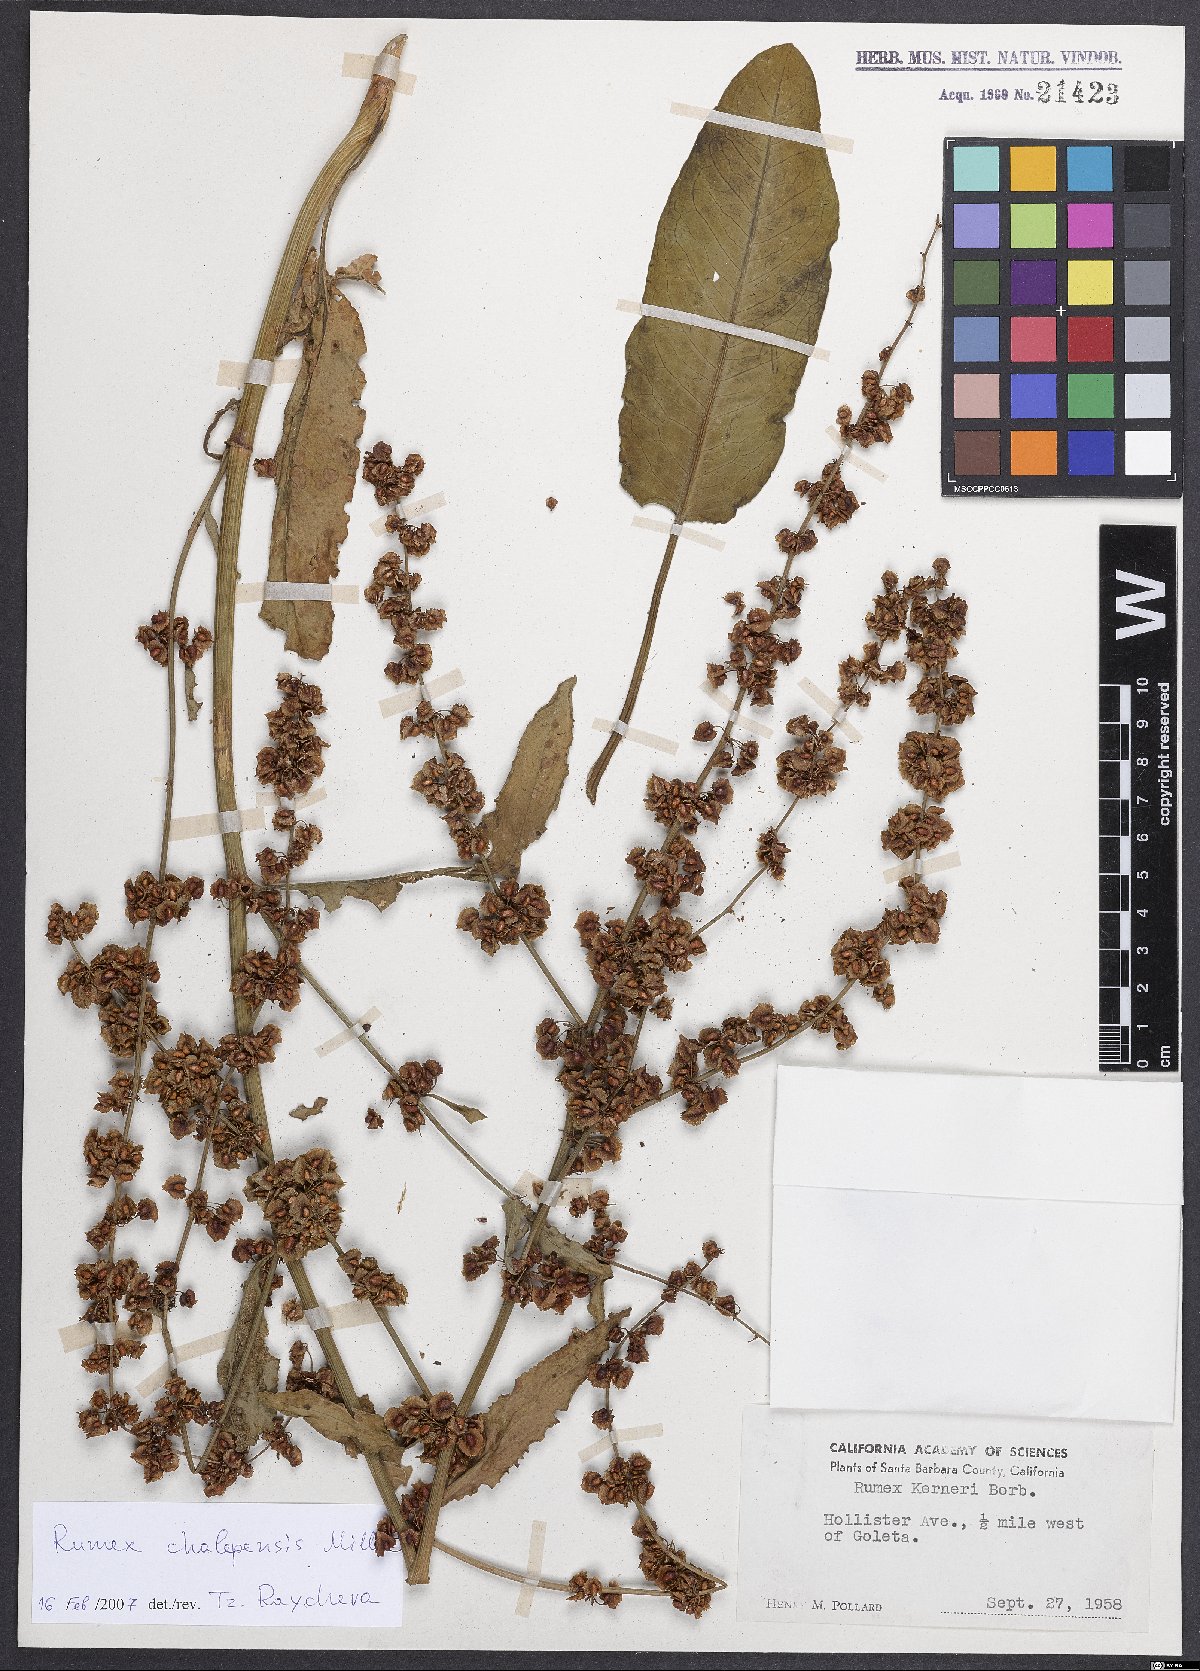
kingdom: Plantae
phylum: Tracheophyta
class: Magnoliopsida
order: Caryophyllales
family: Polygonaceae
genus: Rumex
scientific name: Rumex chalepensis
